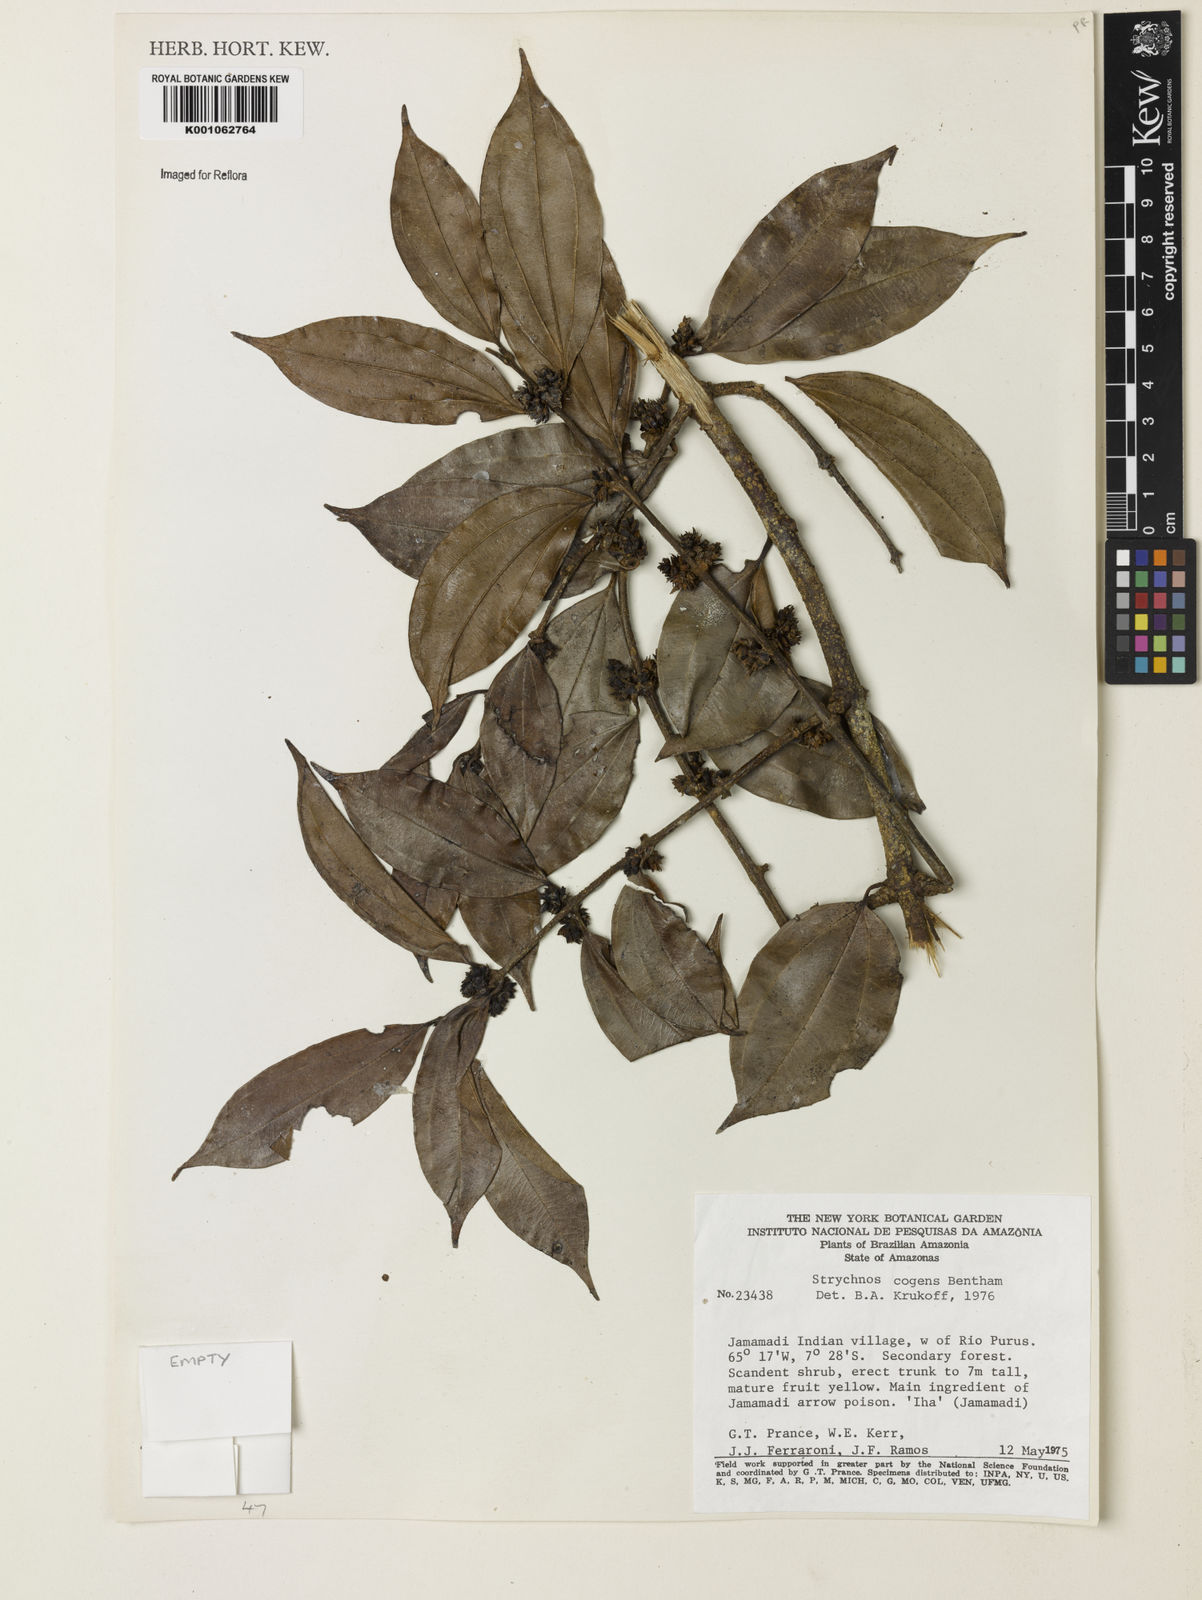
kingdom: Plantae
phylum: Tracheophyta
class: Magnoliopsida
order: Gentianales
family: Loganiaceae
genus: Strychnos
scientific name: Strychnos cogens
